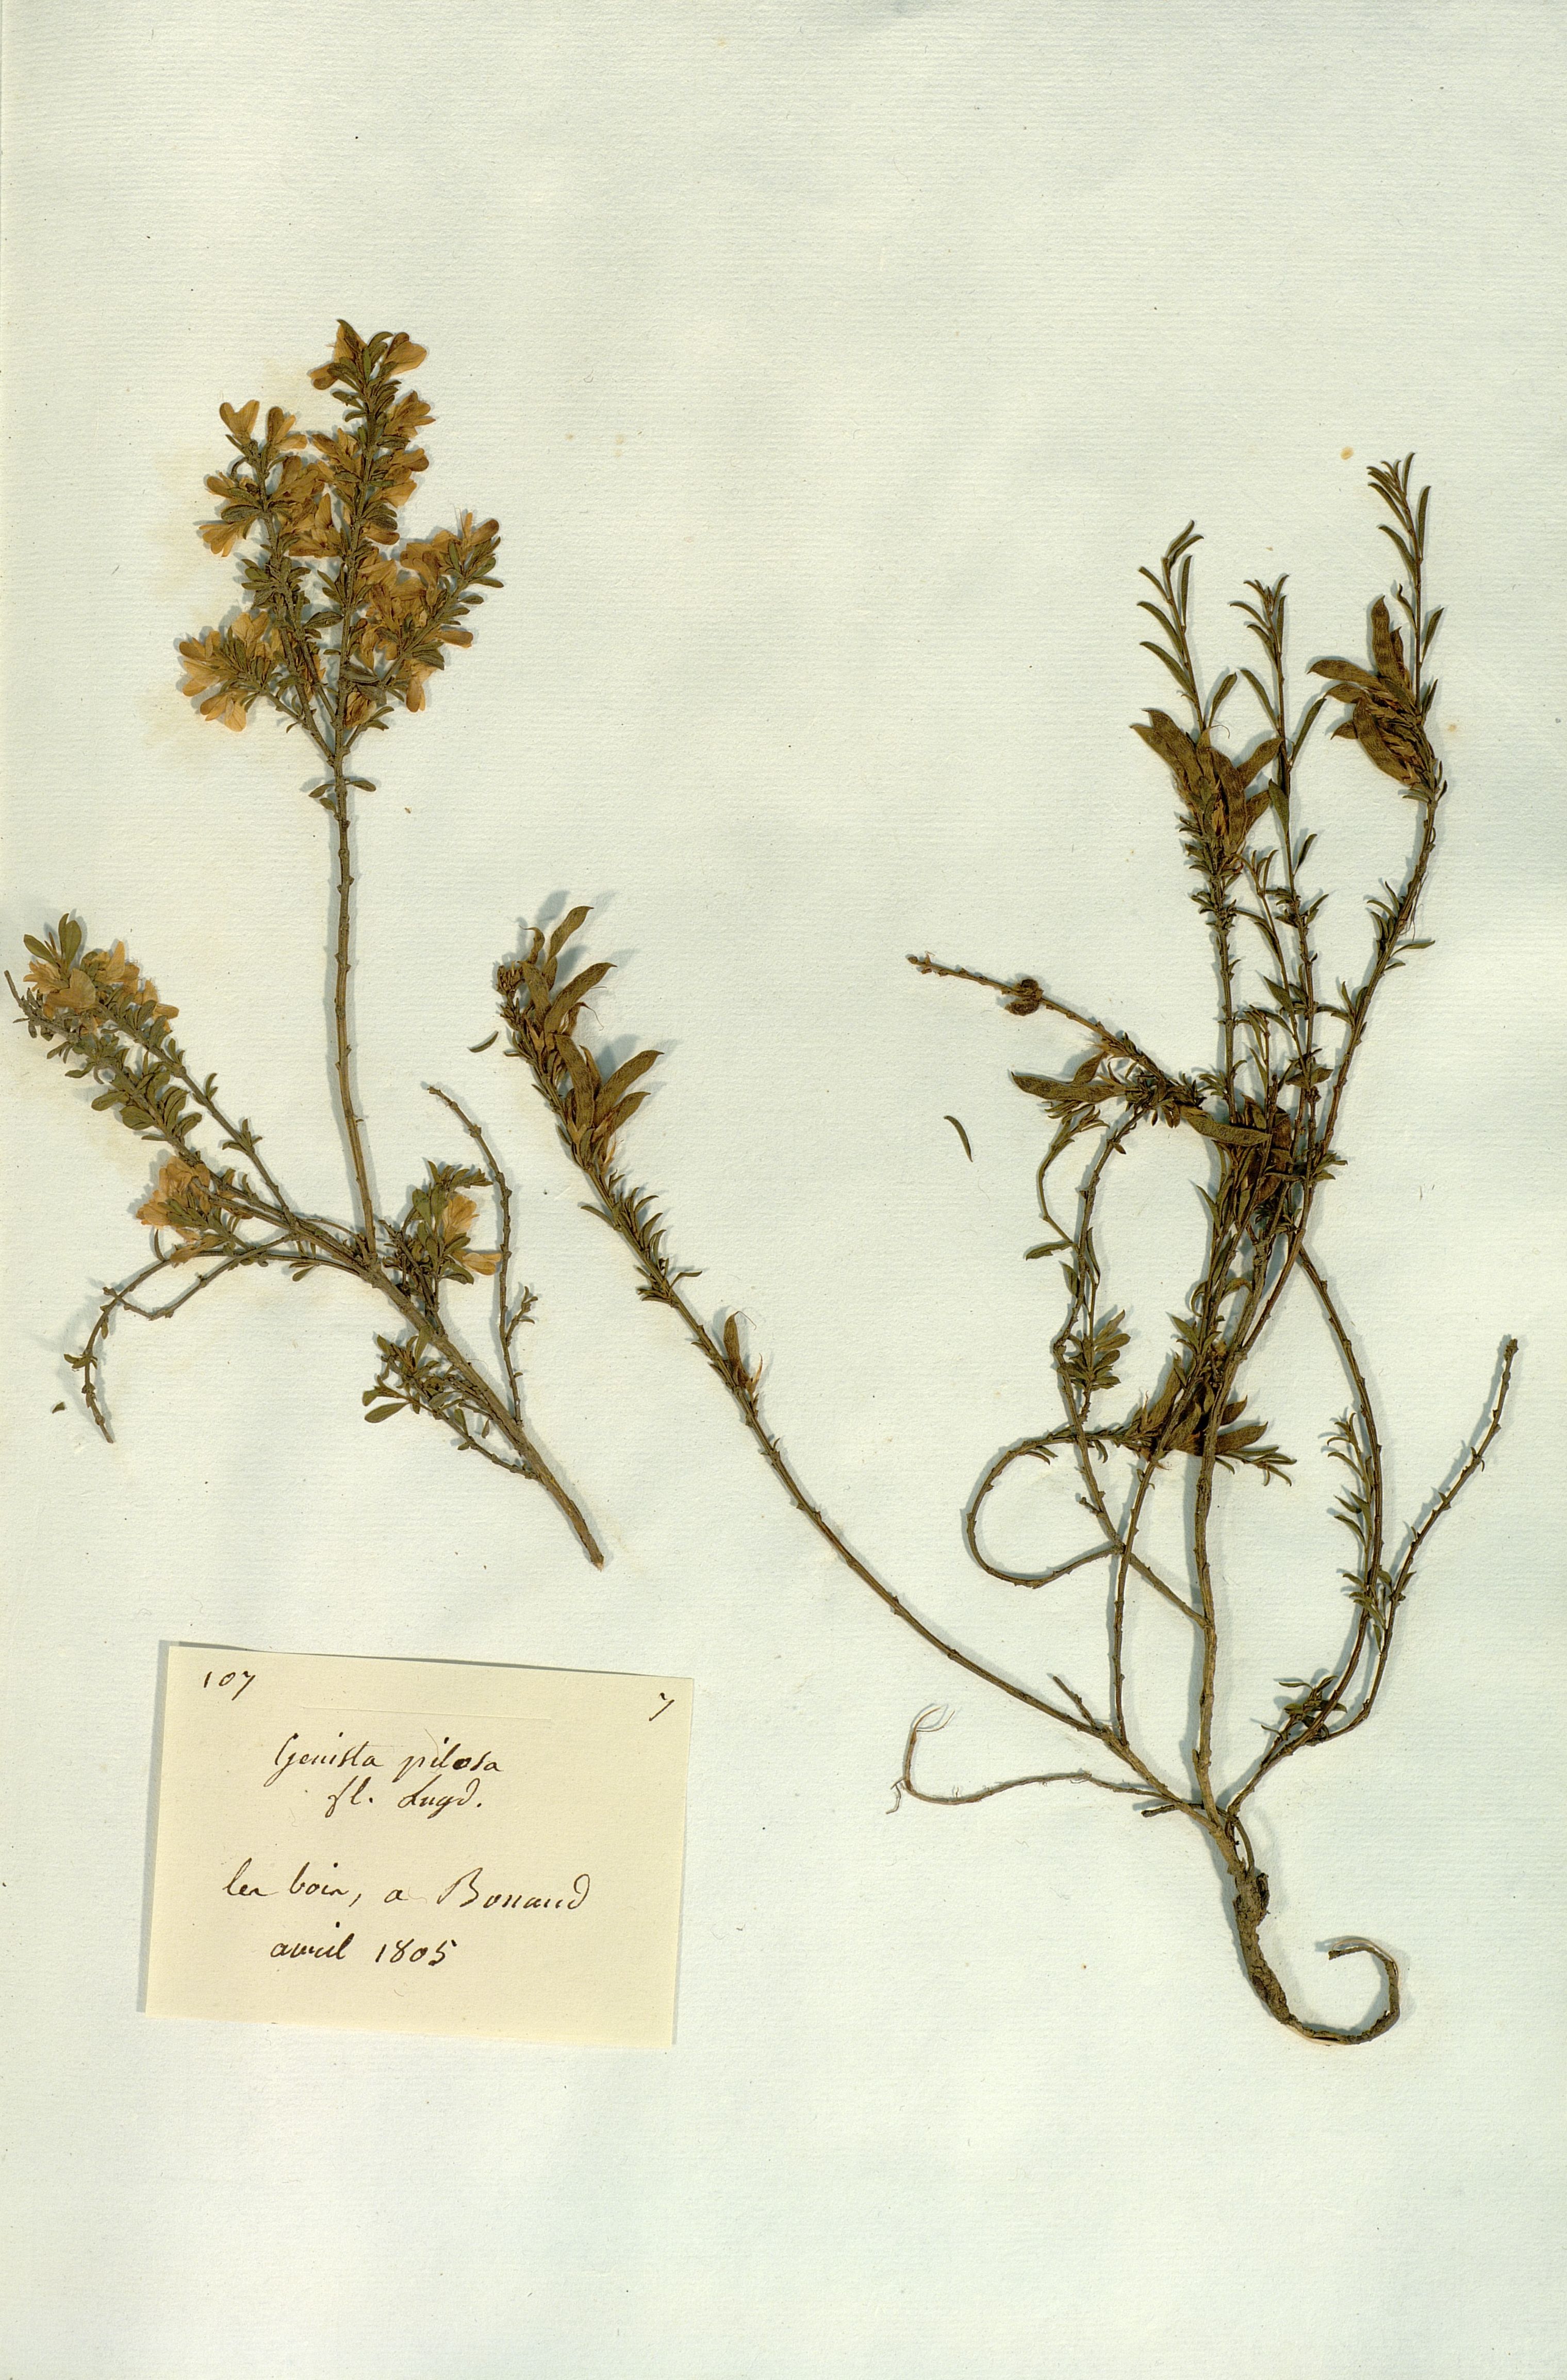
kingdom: Plantae
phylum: Tracheophyta
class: Magnoliopsida
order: Fabales
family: Fabaceae
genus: Genista
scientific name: Genista pilosa
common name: Hairy greenweed
